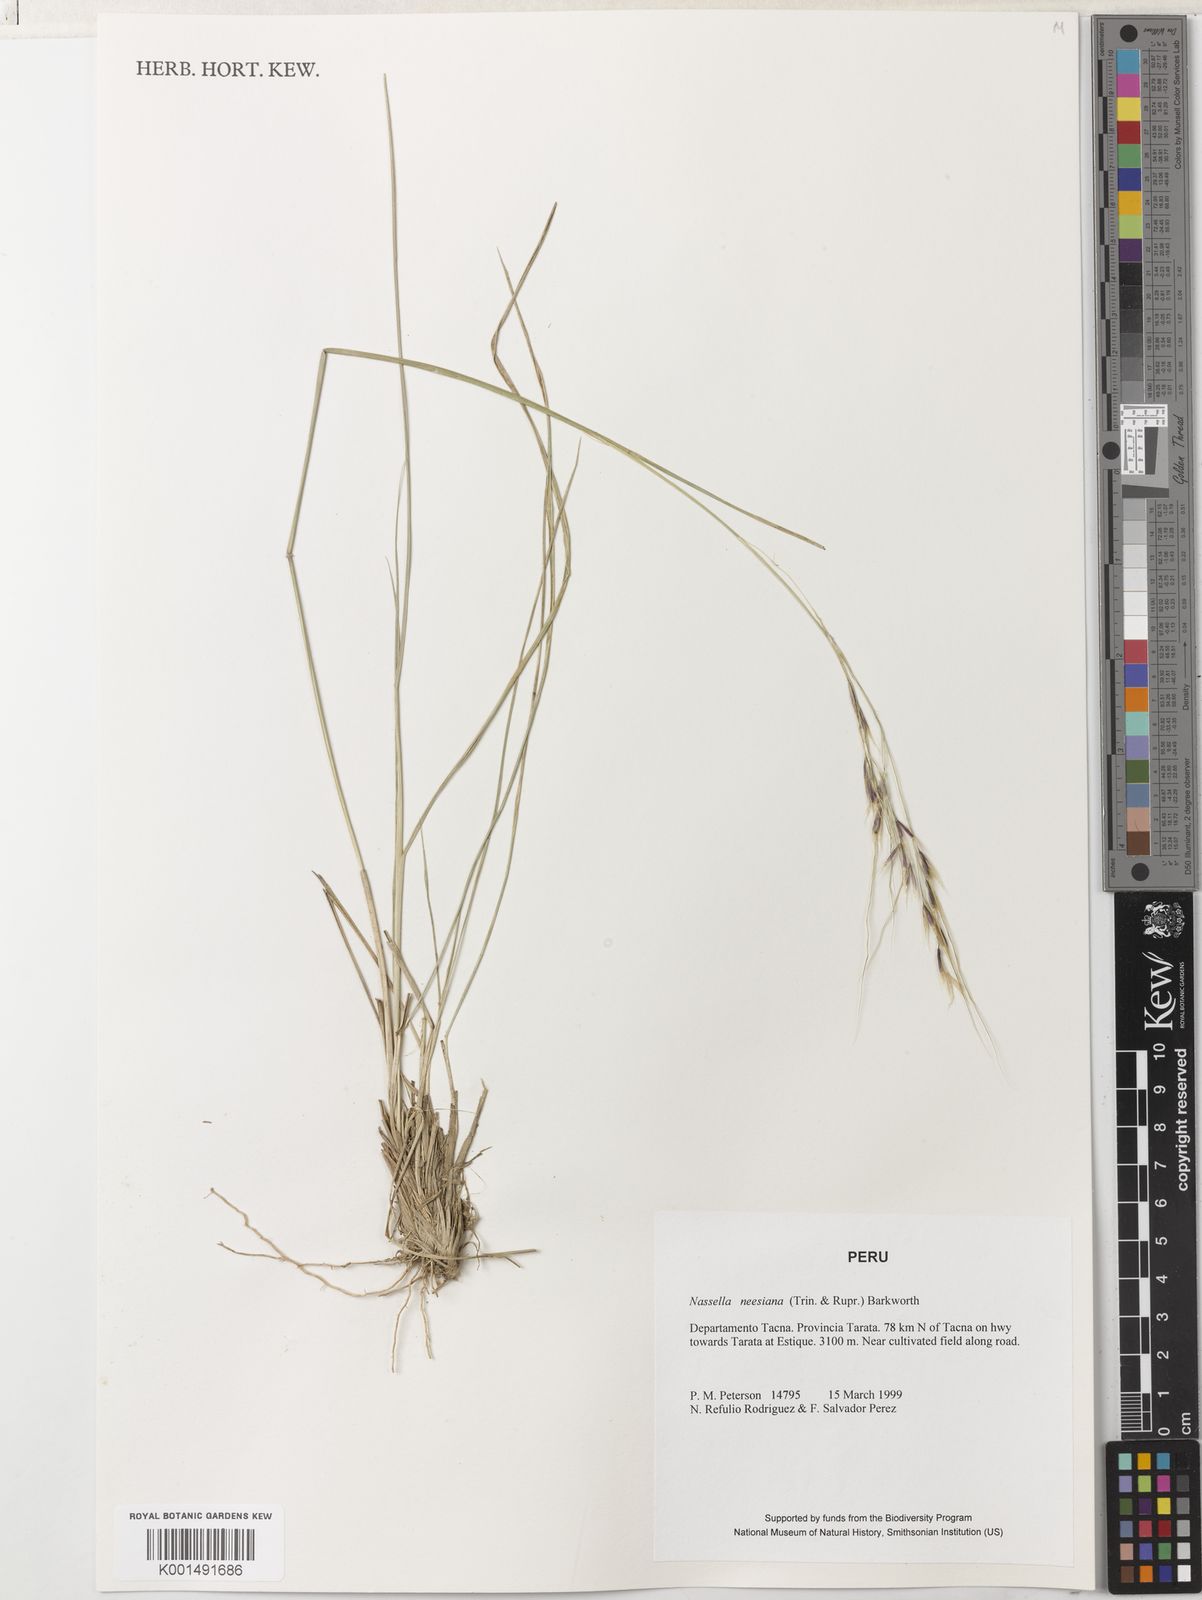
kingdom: Plantae
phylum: Tracheophyta
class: Liliopsida
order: Poales
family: Poaceae
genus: Nassella
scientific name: Nassella neesiana
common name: American needle-grass
